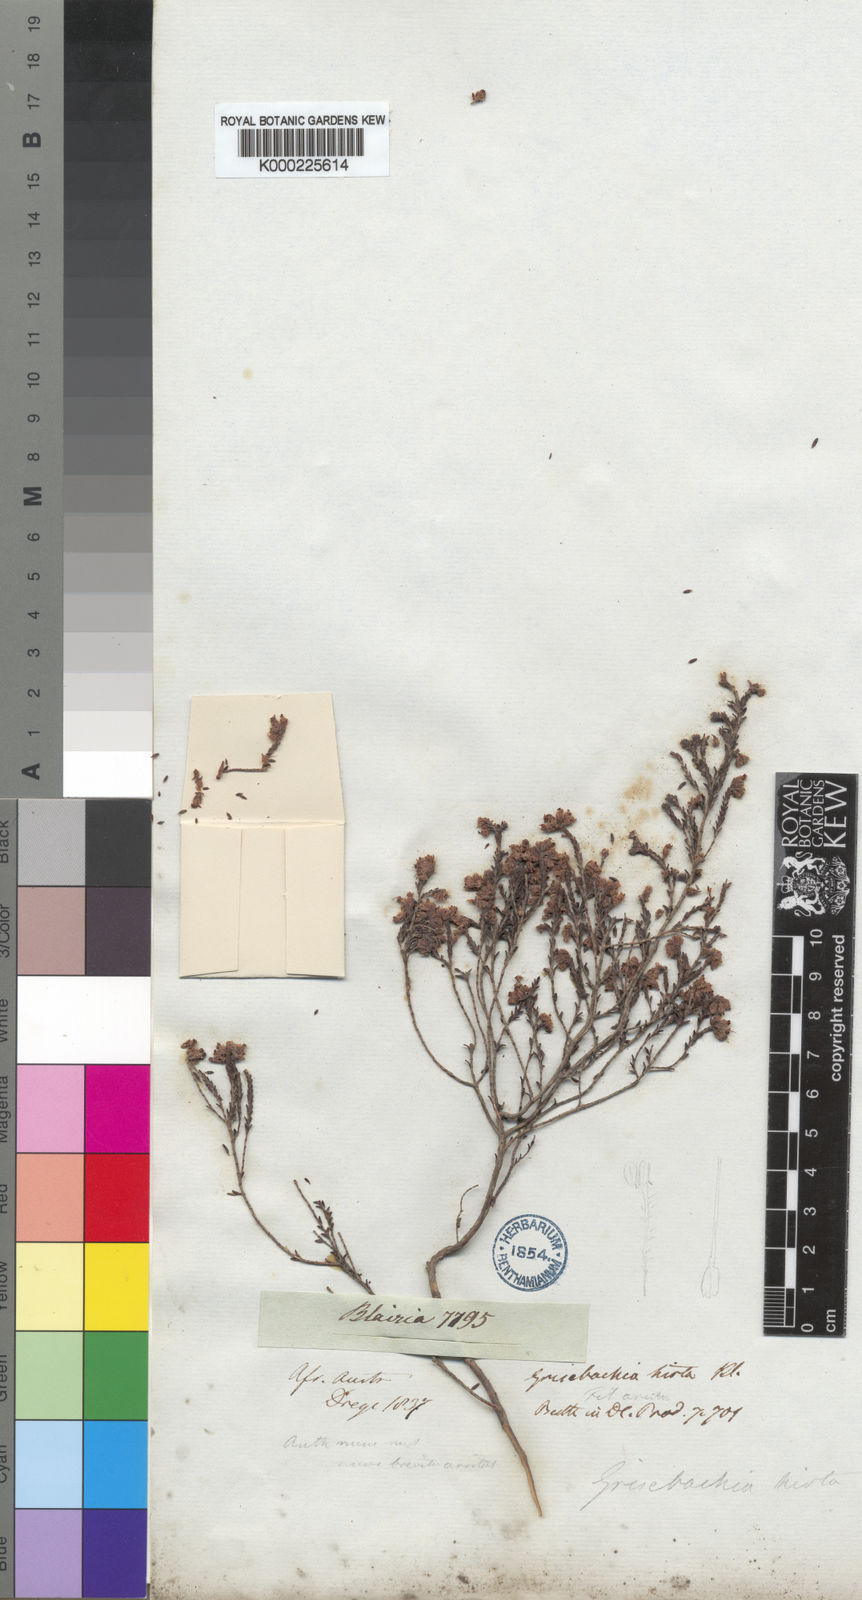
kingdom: Plantae
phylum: Tracheophyta
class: Magnoliopsida
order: Ericales
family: Ericaceae
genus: Erica
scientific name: Erica plumosa
